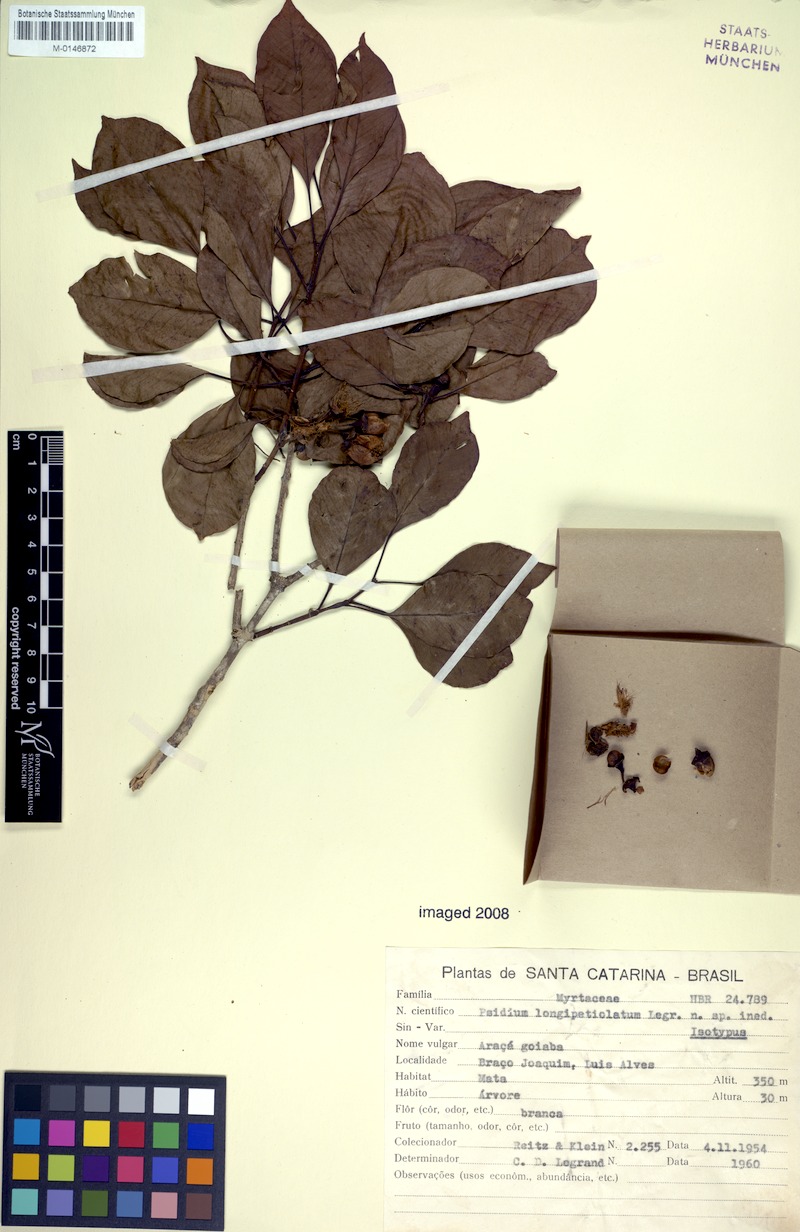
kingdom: Plantae
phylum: Tracheophyta
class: Magnoliopsida
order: Myrtales
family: Myrtaceae
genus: Psidium
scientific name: Psidium longipetiolatum
